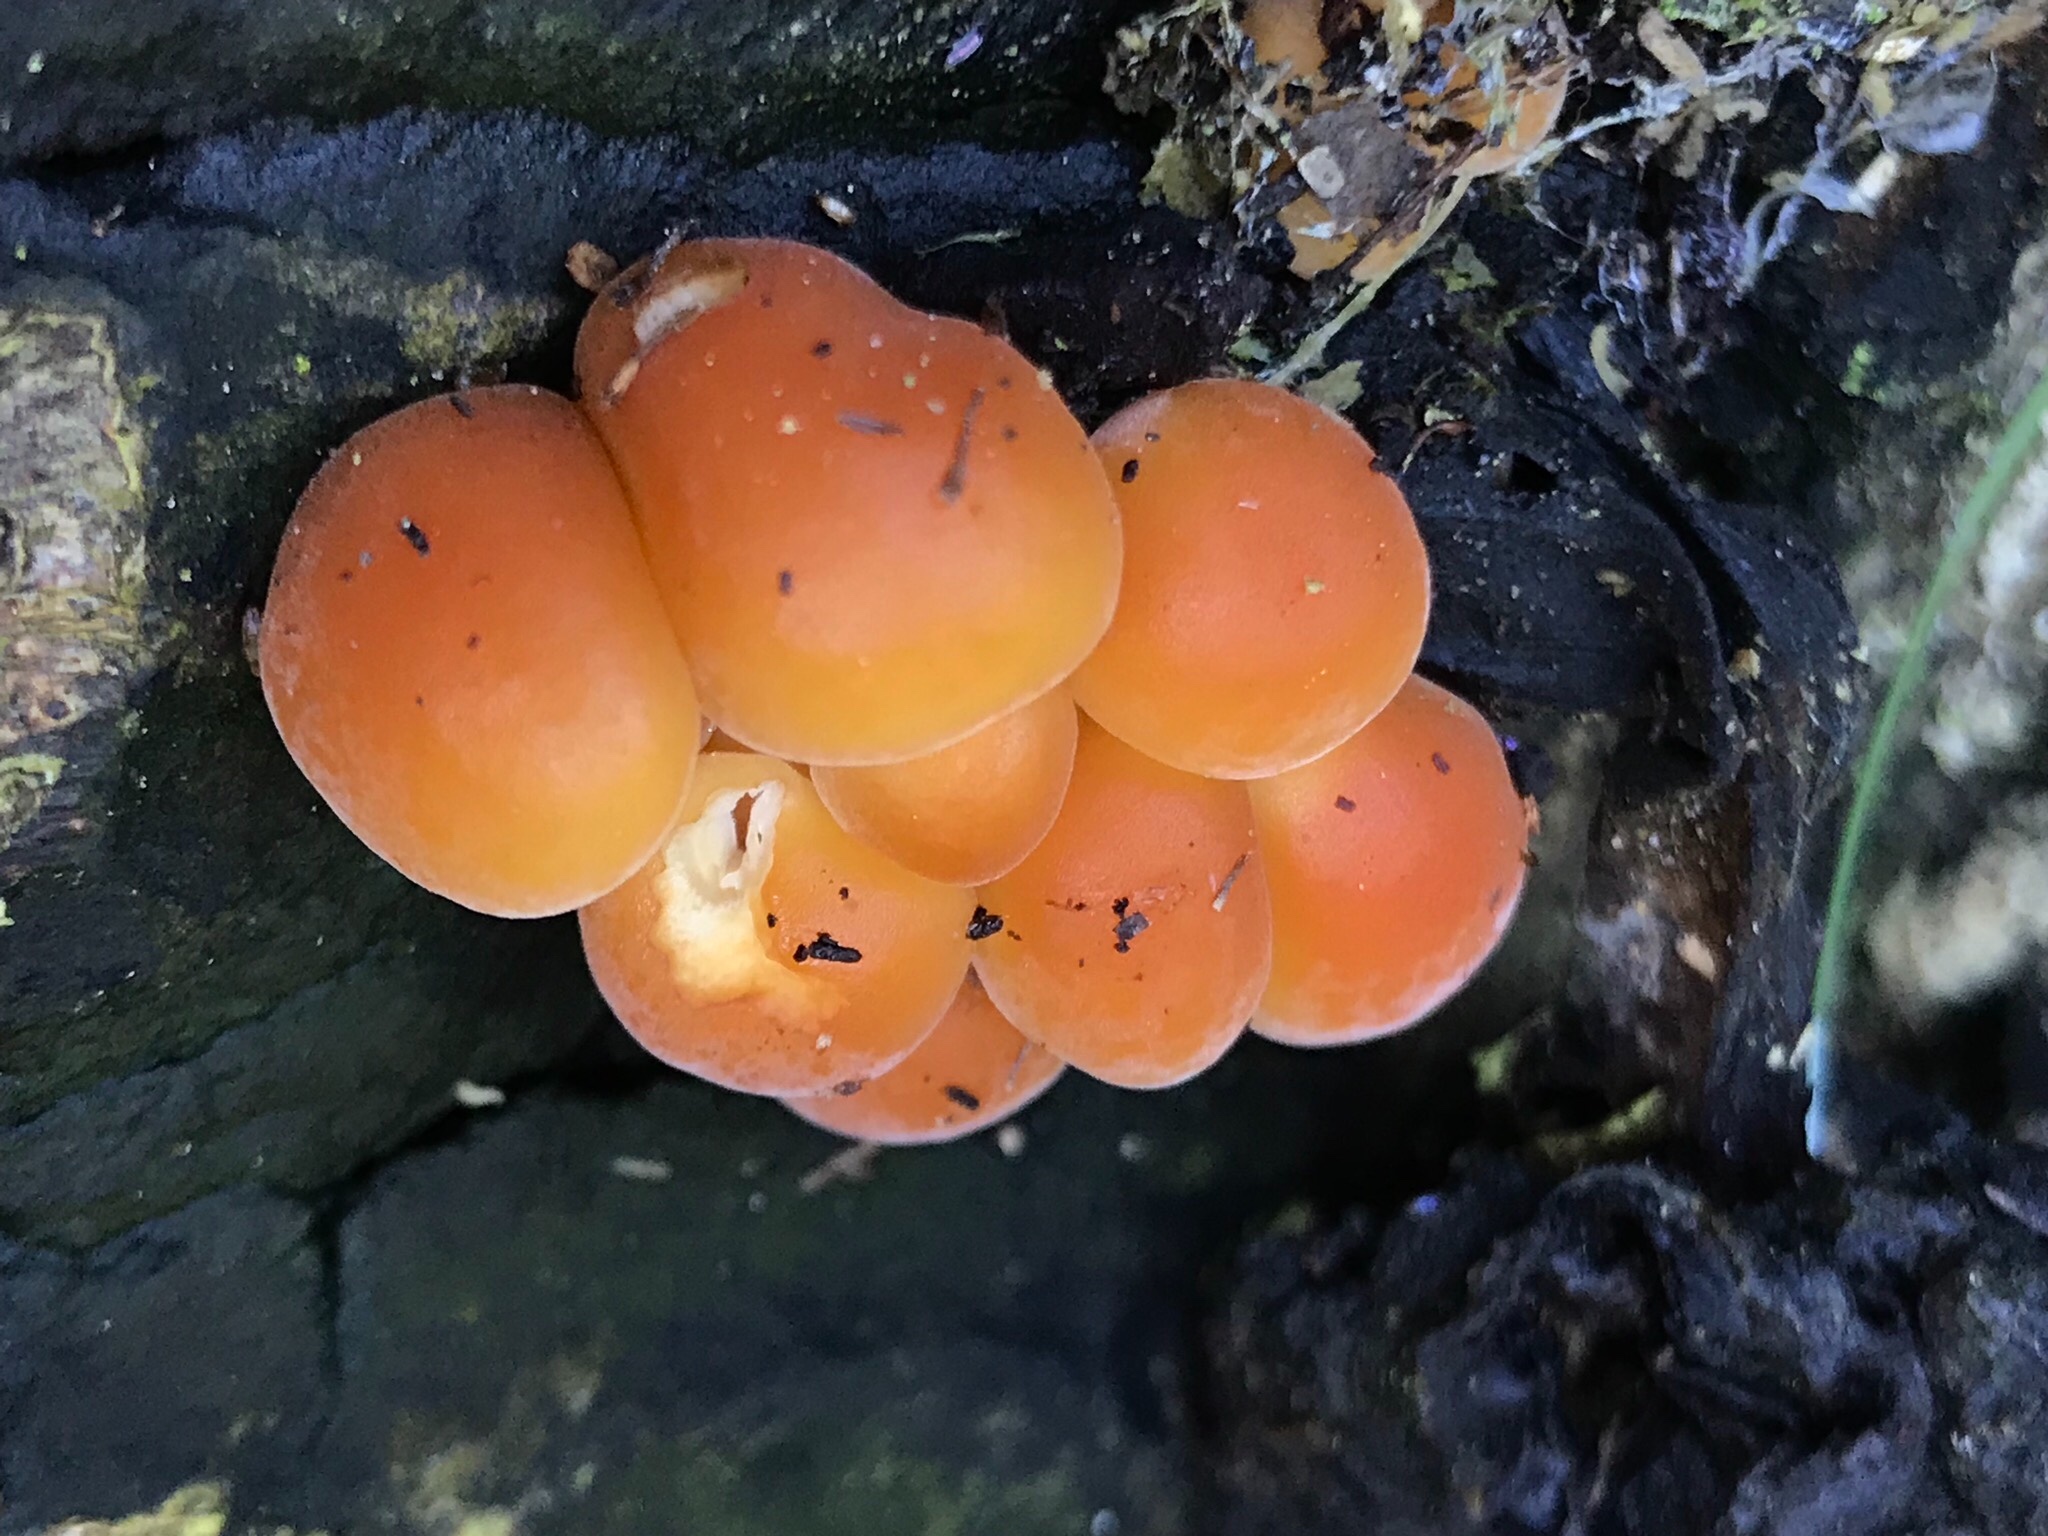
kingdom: Fungi
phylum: Basidiomycota
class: Agaricomycetes
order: Agaricales
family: Physalacriaceae
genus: Flammulina
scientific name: Flammulina velutipes
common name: gul fløjlsfod
